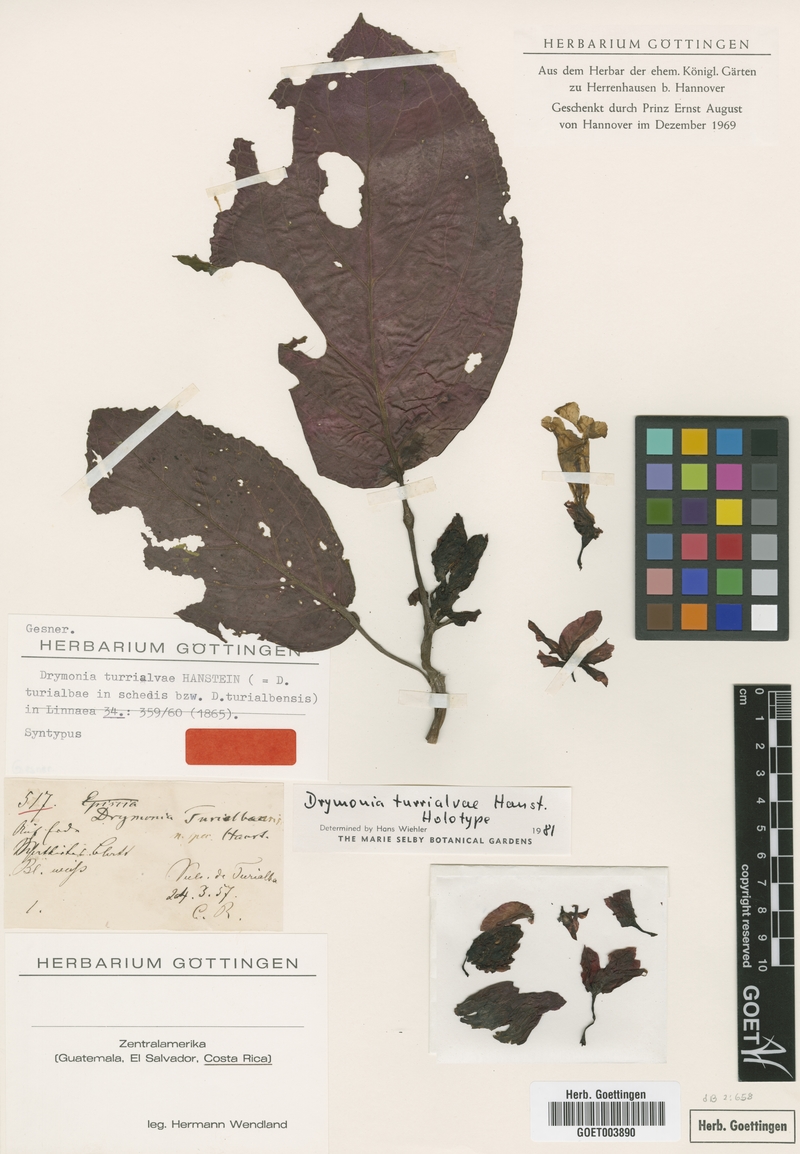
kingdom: Plantae
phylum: Tracheophyta
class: Magnoliopsida
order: Lamiales
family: Gesneriaceae
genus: Drymonia
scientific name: Drymonia turrialvae
